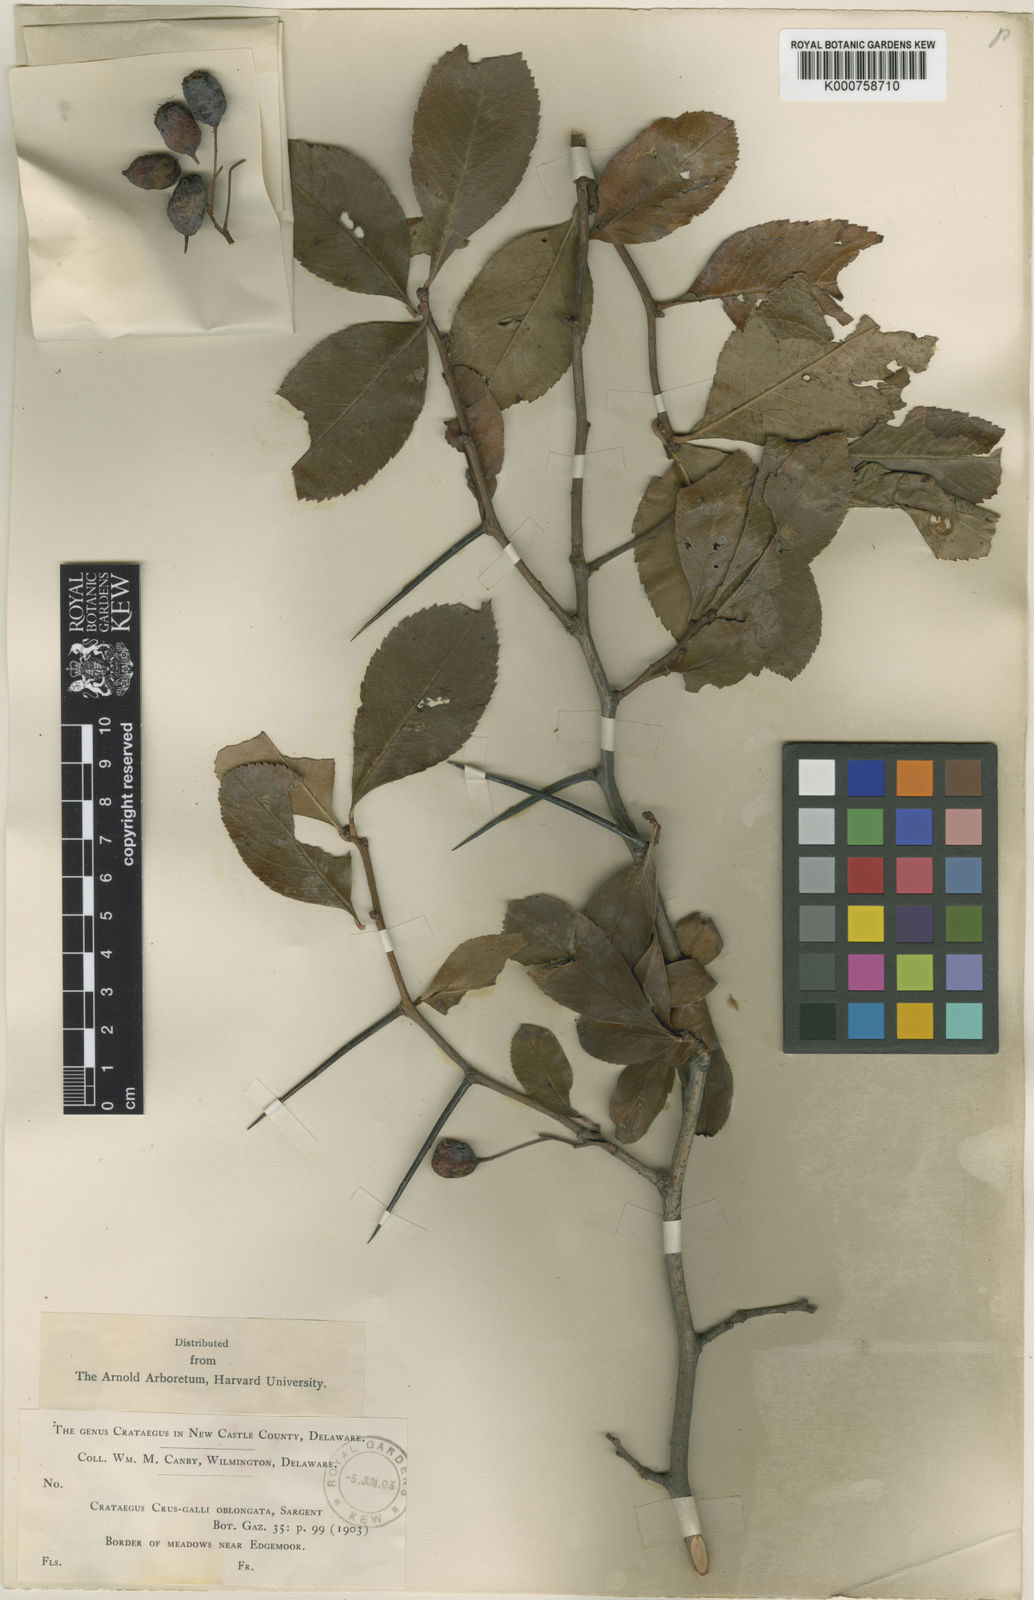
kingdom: Plantae
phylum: Tracheophyta
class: Magnoliopsida
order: Rosales
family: Rosaceae
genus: Crataegus
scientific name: Crataegus crus-galli
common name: Cockspurthorn
